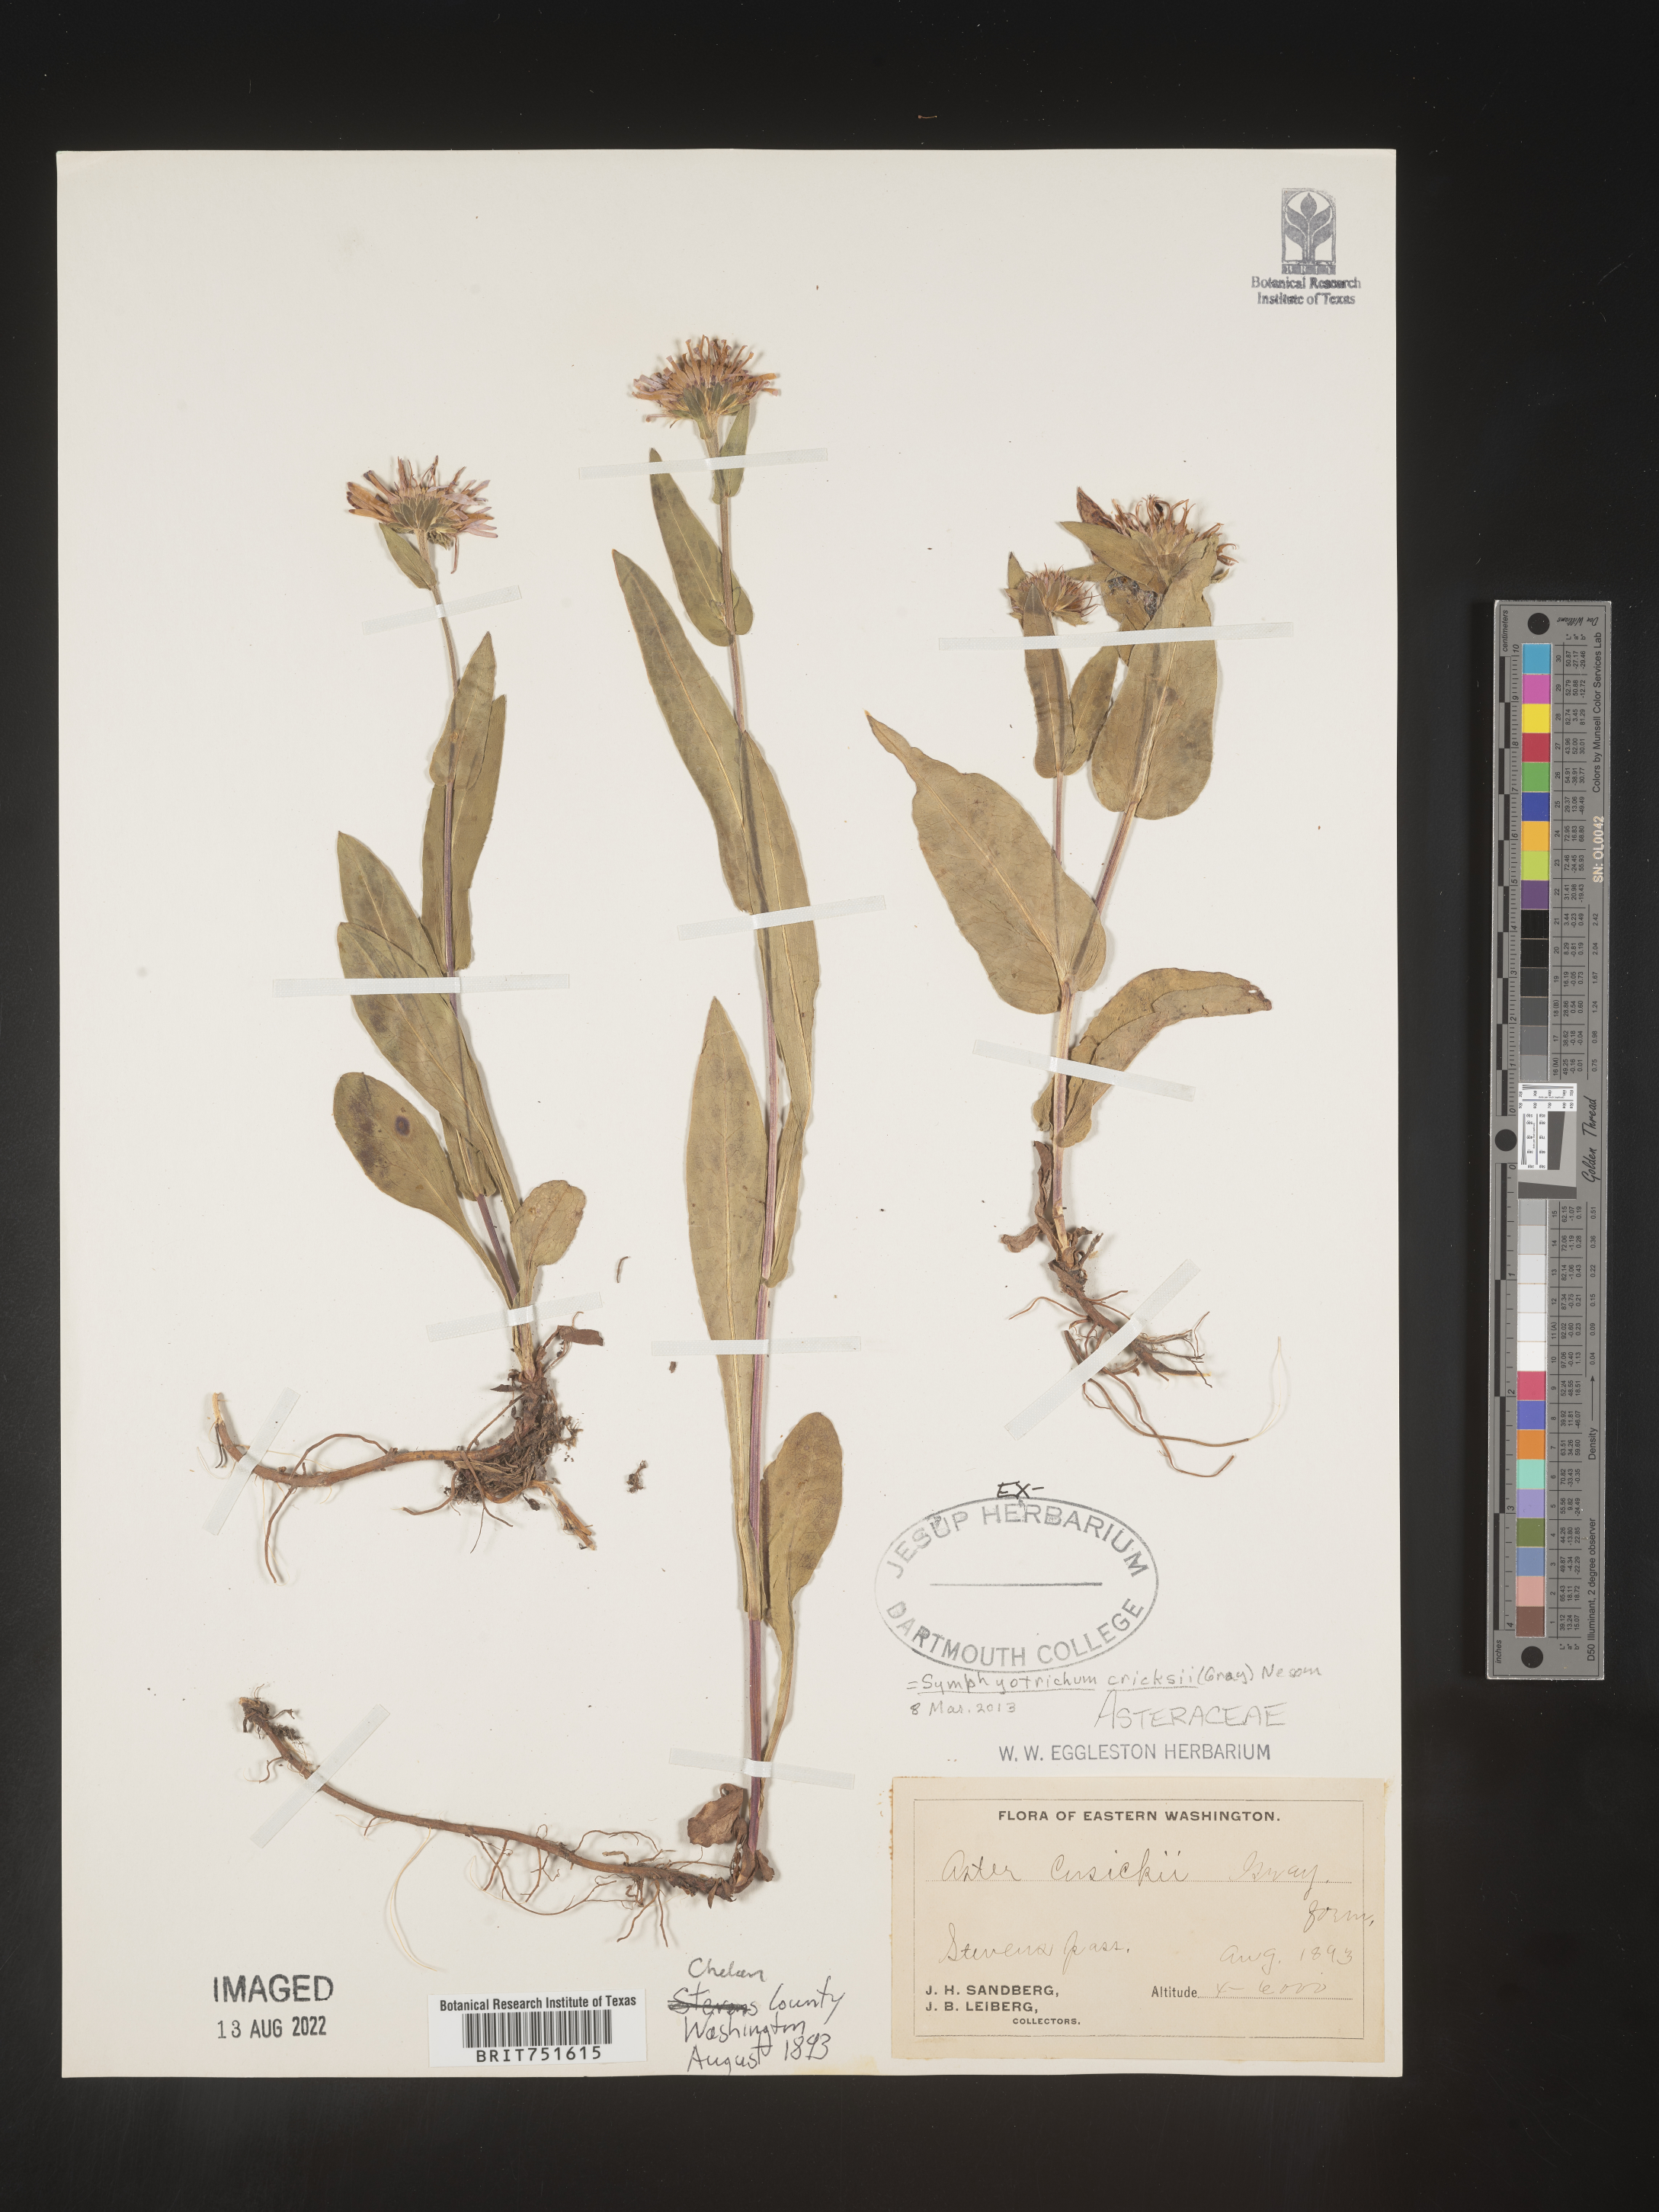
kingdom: Plantae
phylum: Tracheophyta
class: Magnoliopsida
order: Asterales
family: Asteraceae
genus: Symphyotrichum
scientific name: Symphyotrichum foliaceum
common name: Leafy aster
